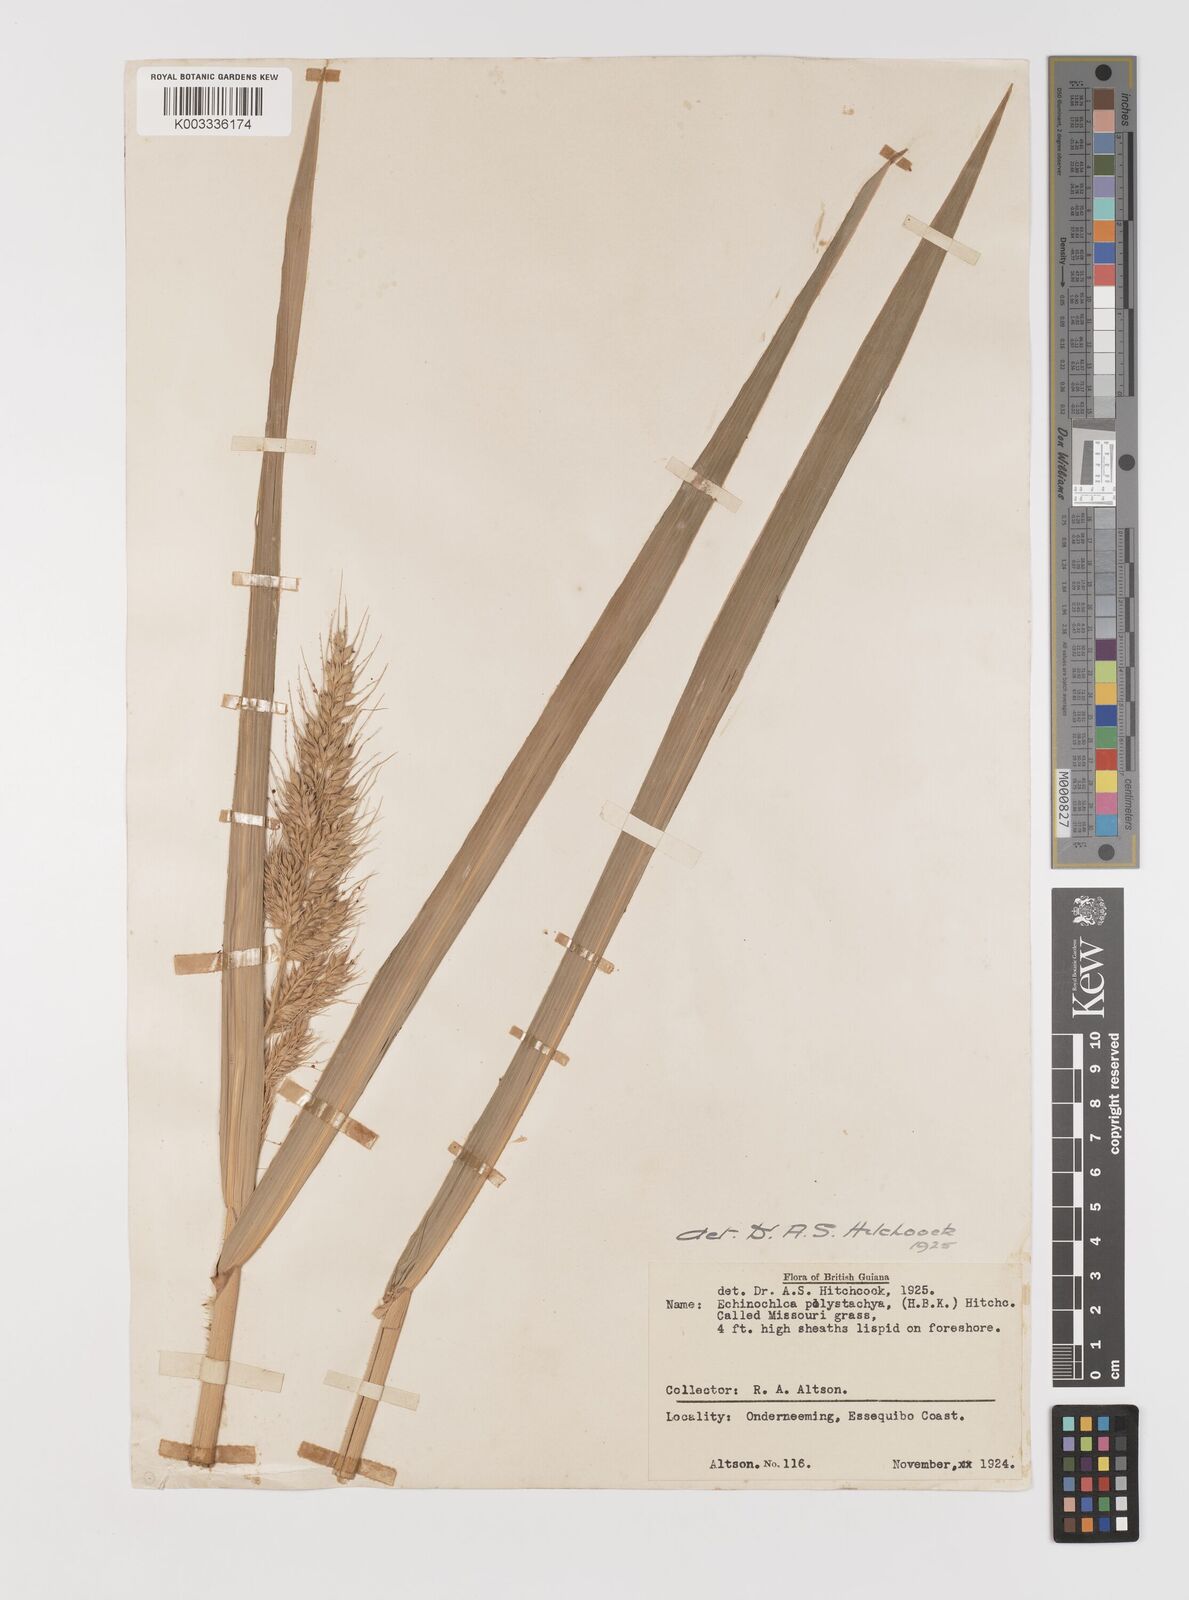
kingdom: Plantae
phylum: Tracheophyta
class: Liliopsida
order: Poales
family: Poaceae
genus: Pseudechinolaena
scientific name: Pseudechinolaena polystachya
